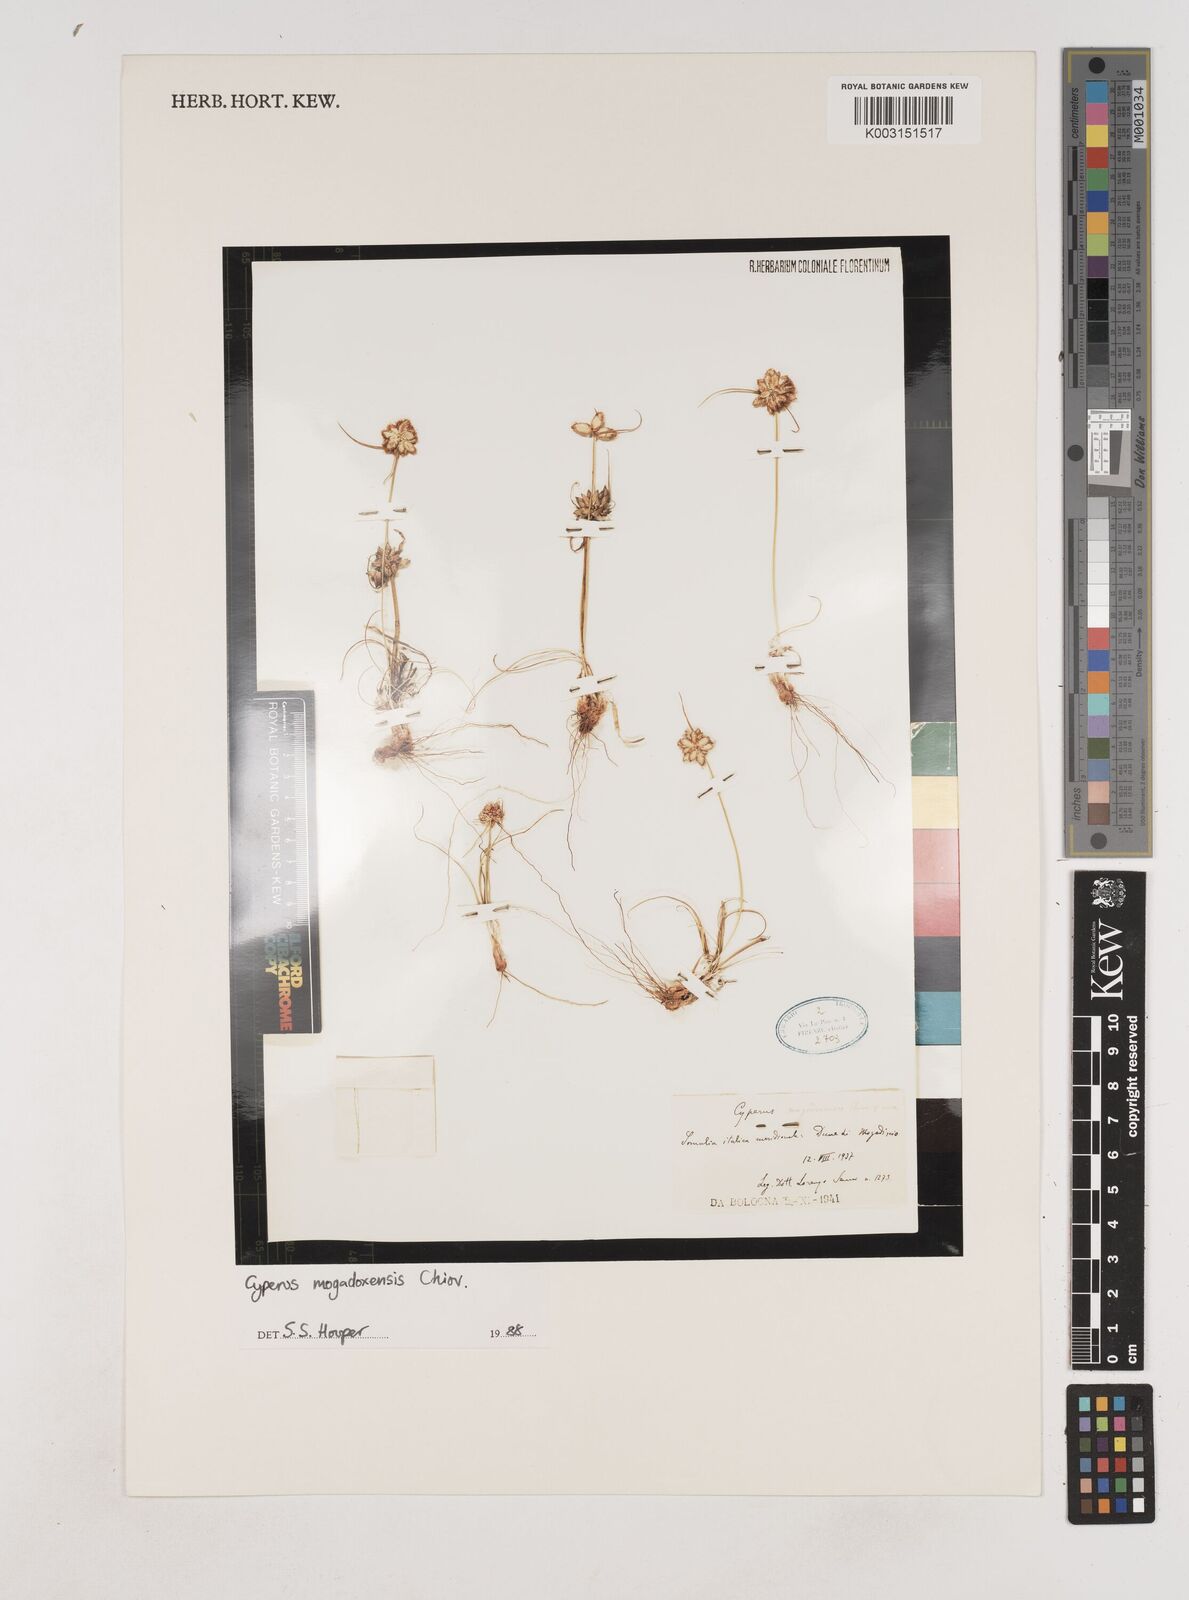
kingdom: Plantae
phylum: Tracheophyta
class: Liliopsida
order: Poales
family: Cyperaceae
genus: Cyperus
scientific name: Cyperus mogadoxensis
